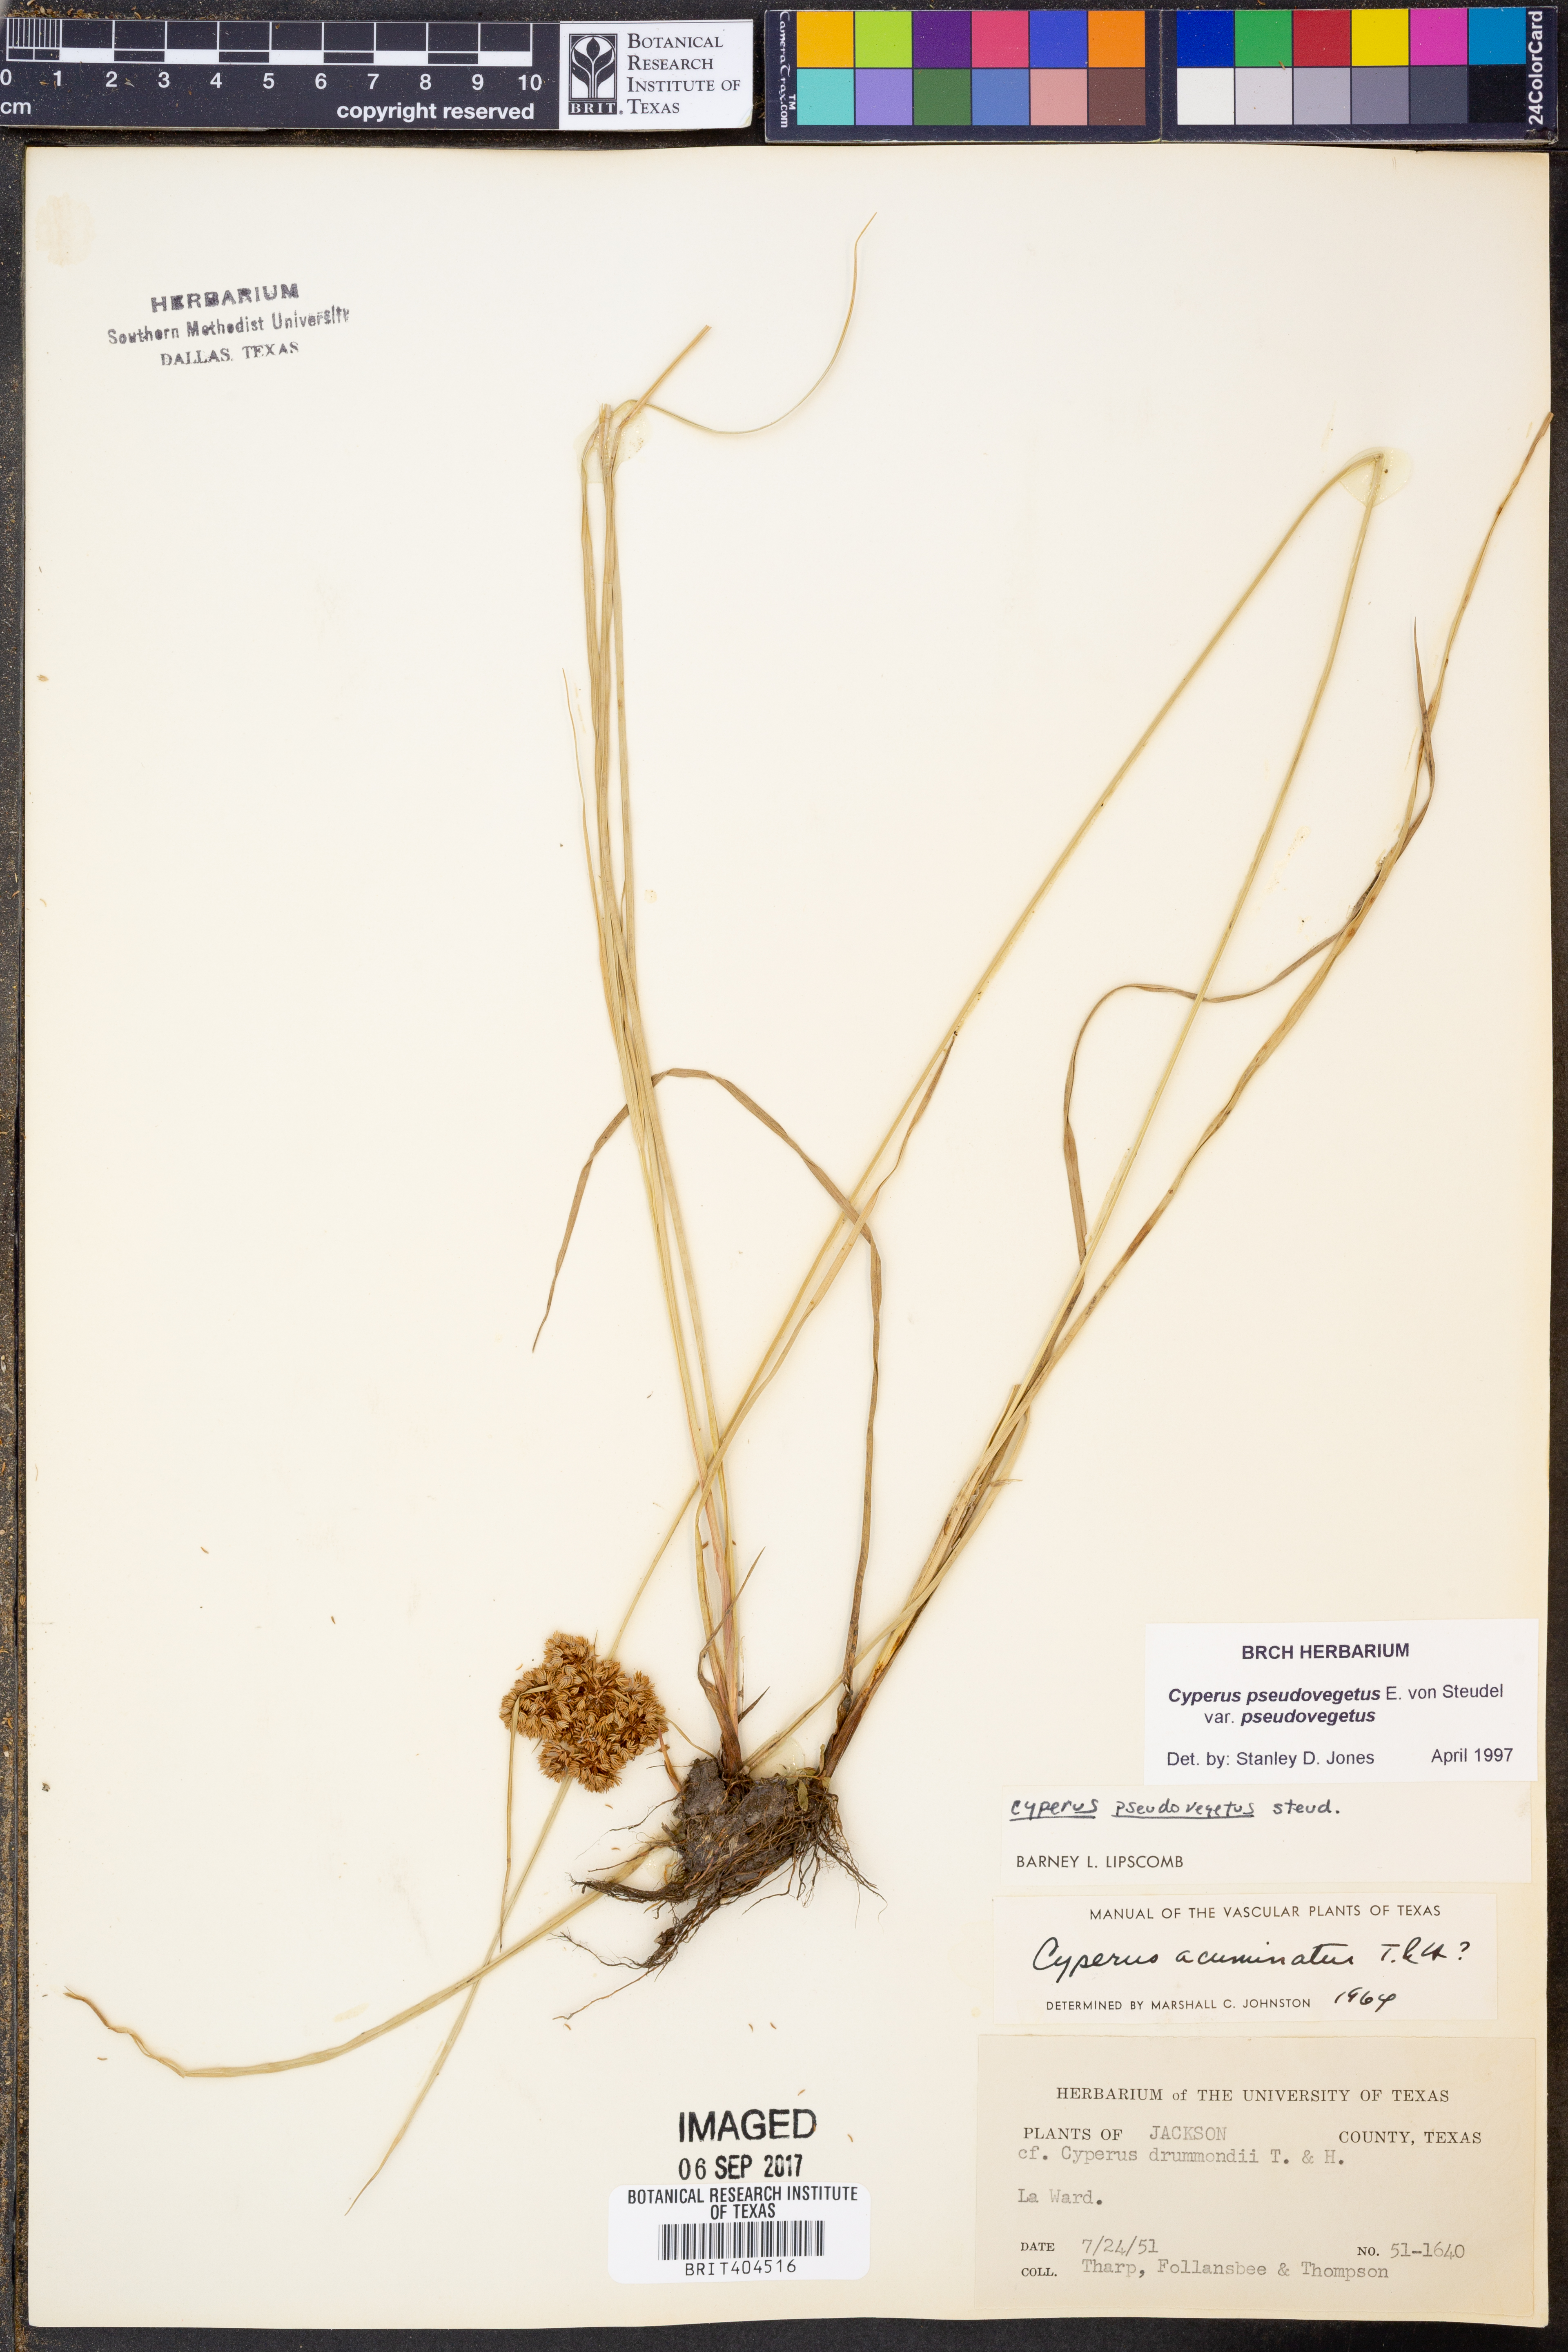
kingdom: Plantae
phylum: Tracheophyta
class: Liliopsida
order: Poales
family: Cyperaceae
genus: Cyperus
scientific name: Cyperus pseudovegetus
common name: Marsh flat sedge
